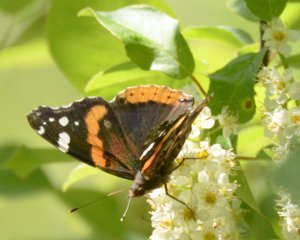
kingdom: Animalia
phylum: Arthropoda
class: Insecta
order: Lepidoptera
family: Nymphalidae
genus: Vanessa
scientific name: Vanessa atalanta
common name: Red Admiral
